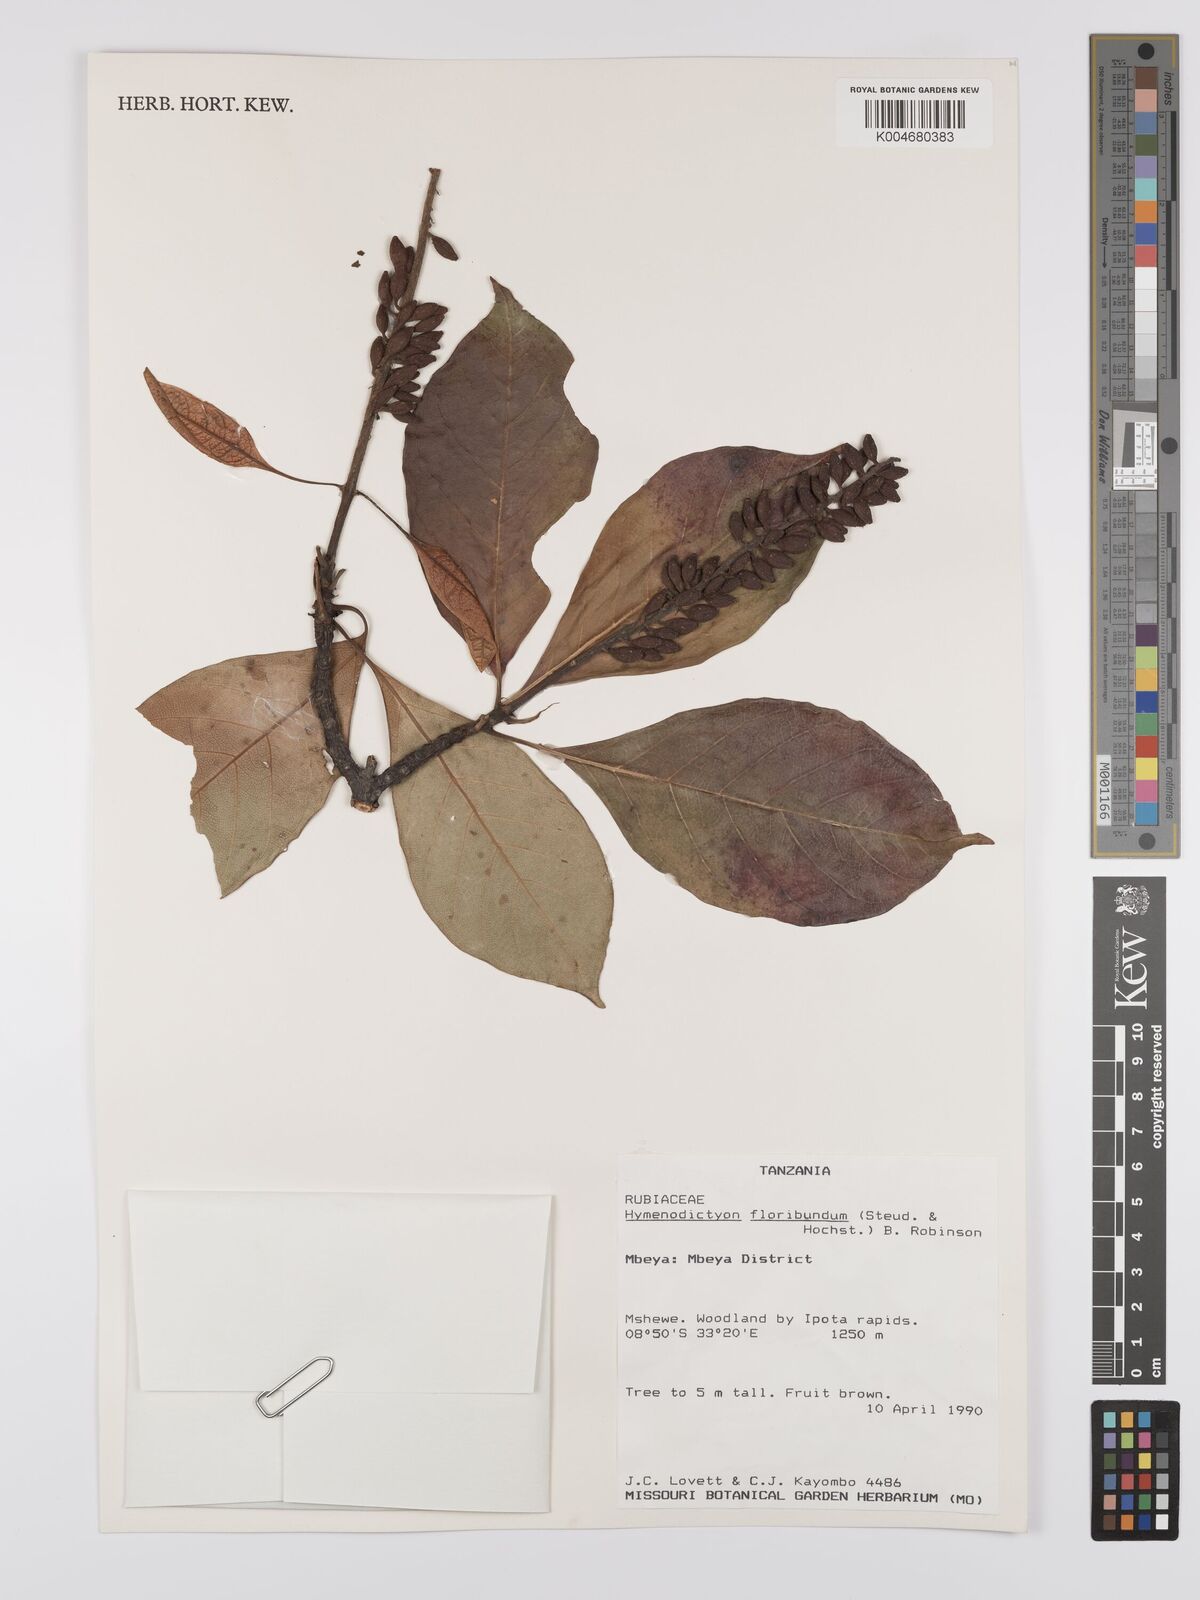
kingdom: Plantae
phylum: Tracheophyta
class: Magnoliopsida
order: Gentianales
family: Rubiaceae
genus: Hymenodictyon
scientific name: Hymenodictyon floribundum
